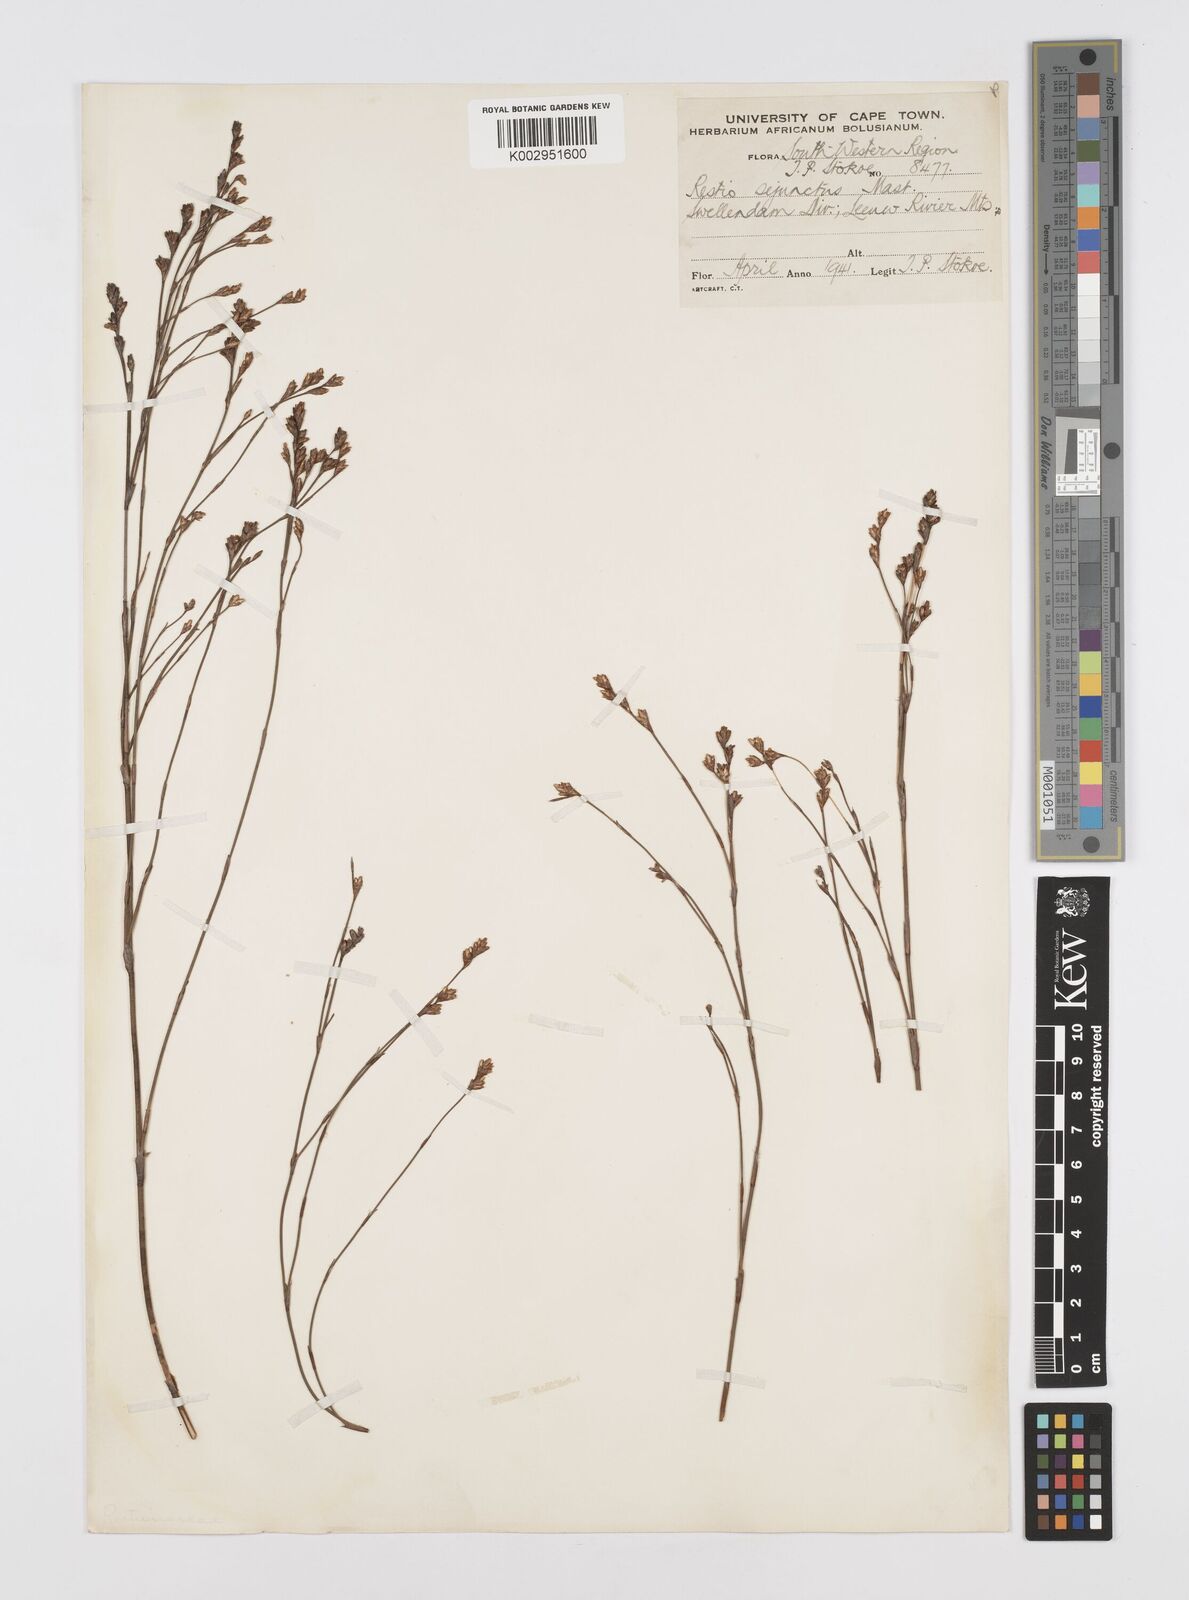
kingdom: Plantae
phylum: Tracheophyta
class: Liliopsida
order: Poales
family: Restionaceae
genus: Restio
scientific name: Restio sejunctus
